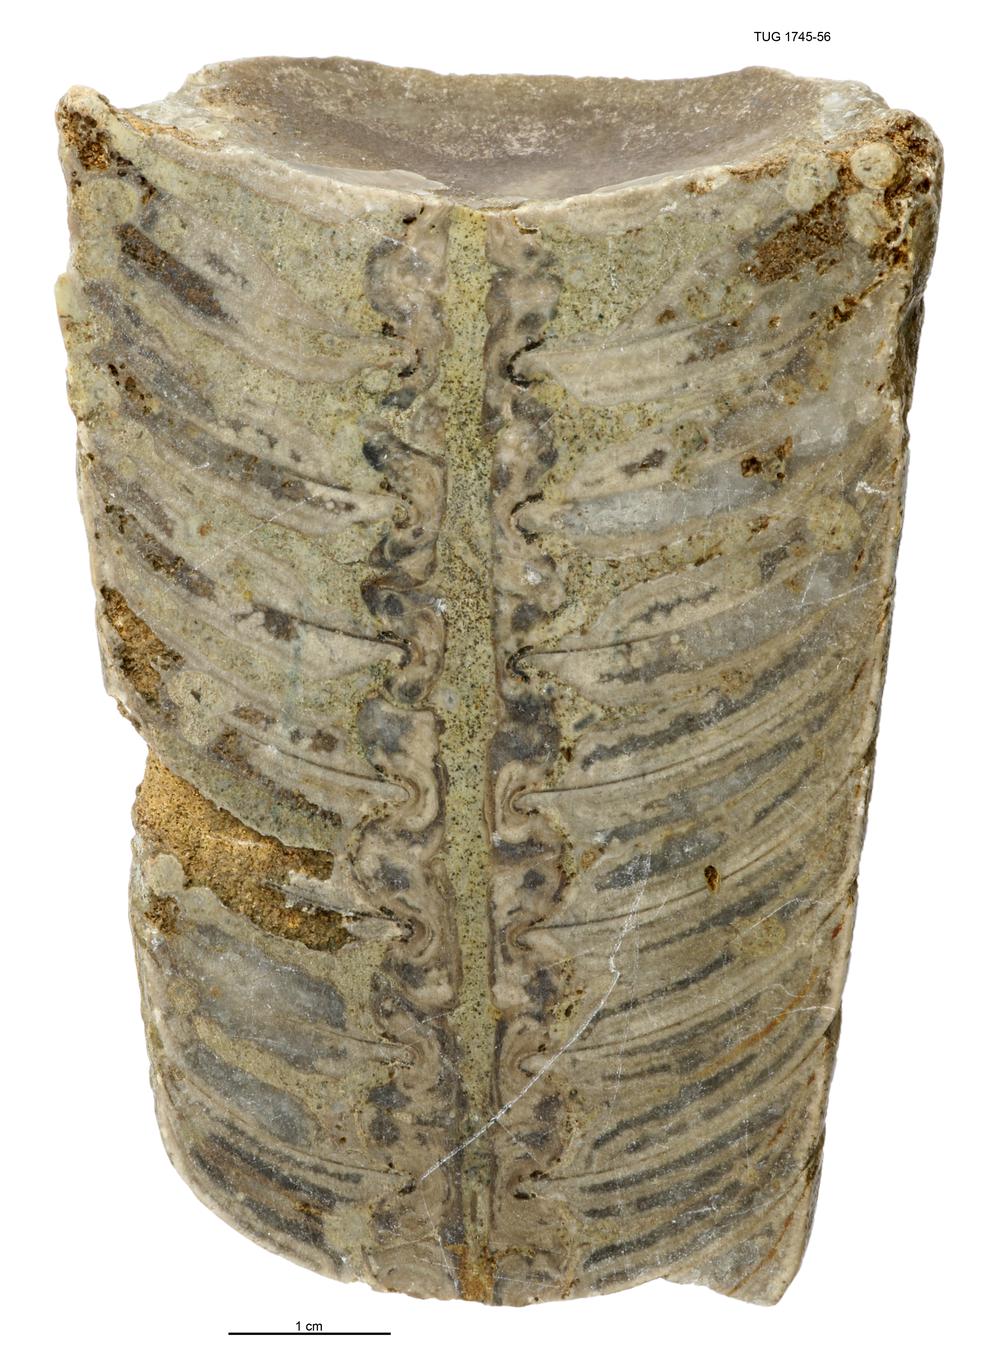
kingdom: Animalia
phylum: Mollusca
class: Cephalopoda
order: Orthocerida
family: Orthoceratidae
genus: Orthoceras
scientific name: Orthoceras
